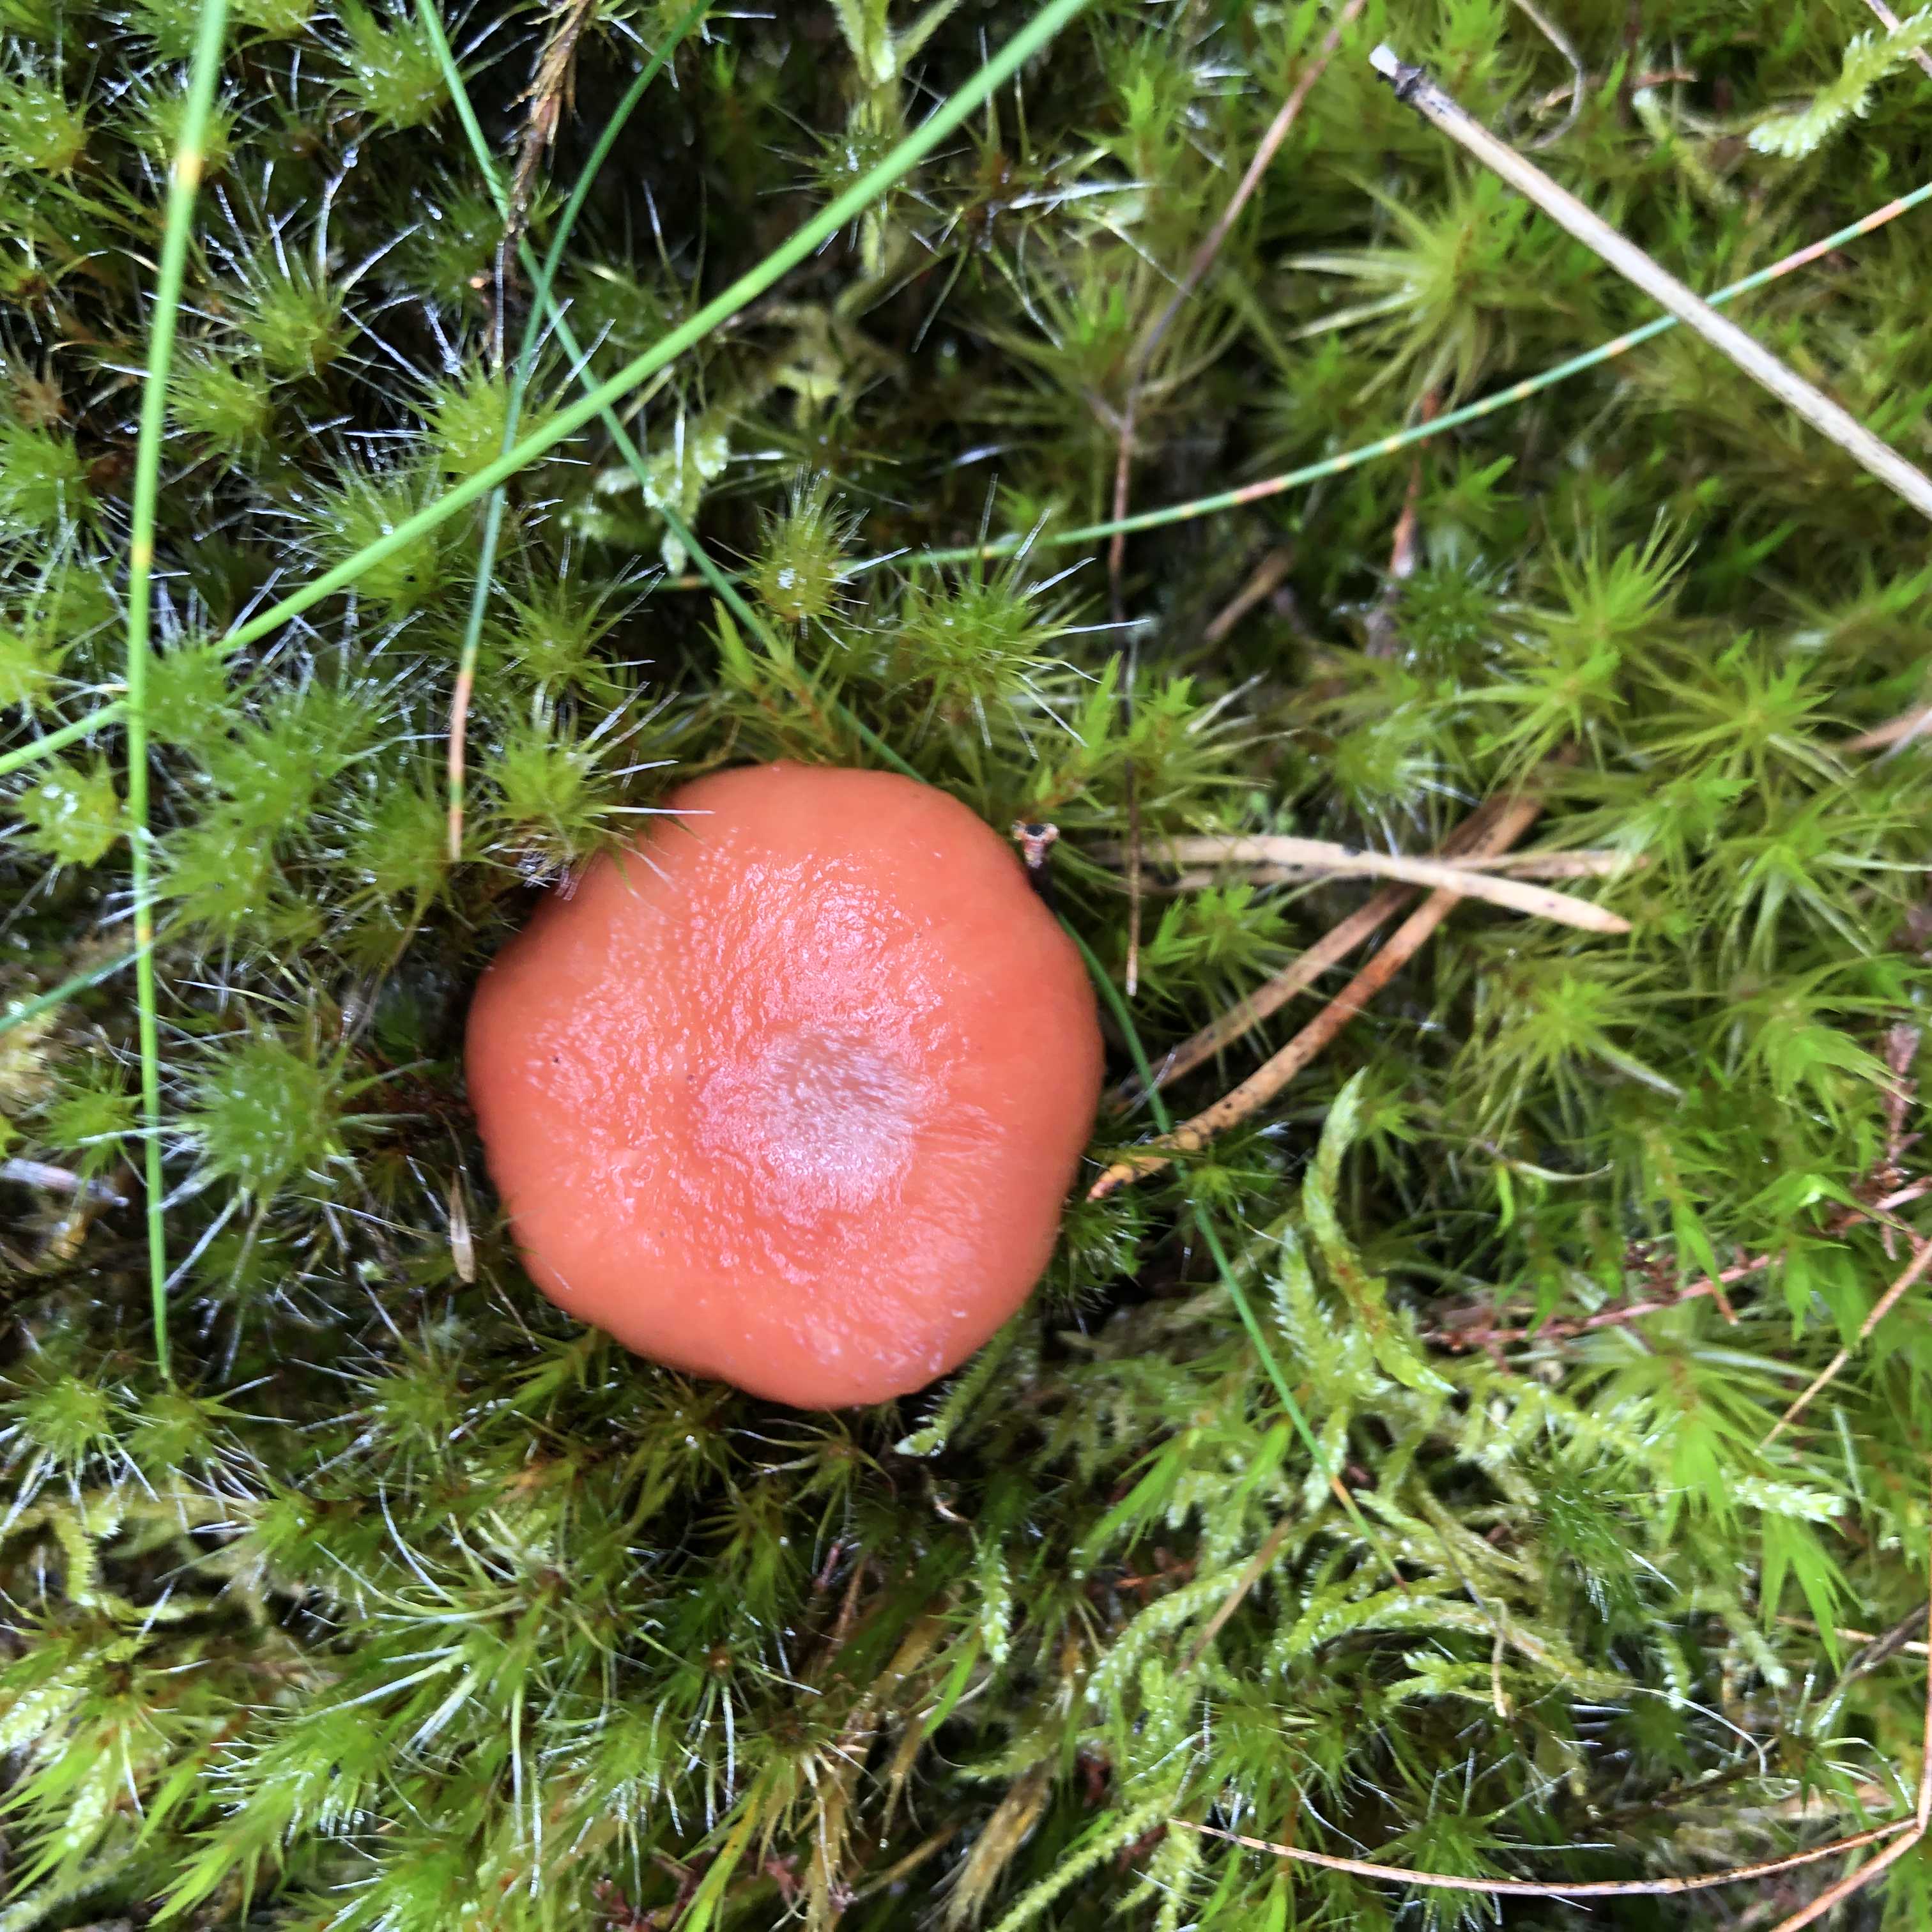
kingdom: Fungi
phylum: Basidiomycota
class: Agaricomycetes
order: Boletales
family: Gomphidiaceae
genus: Gomphidius
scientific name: Gomphidius roseus
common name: rosenrød slimslør
